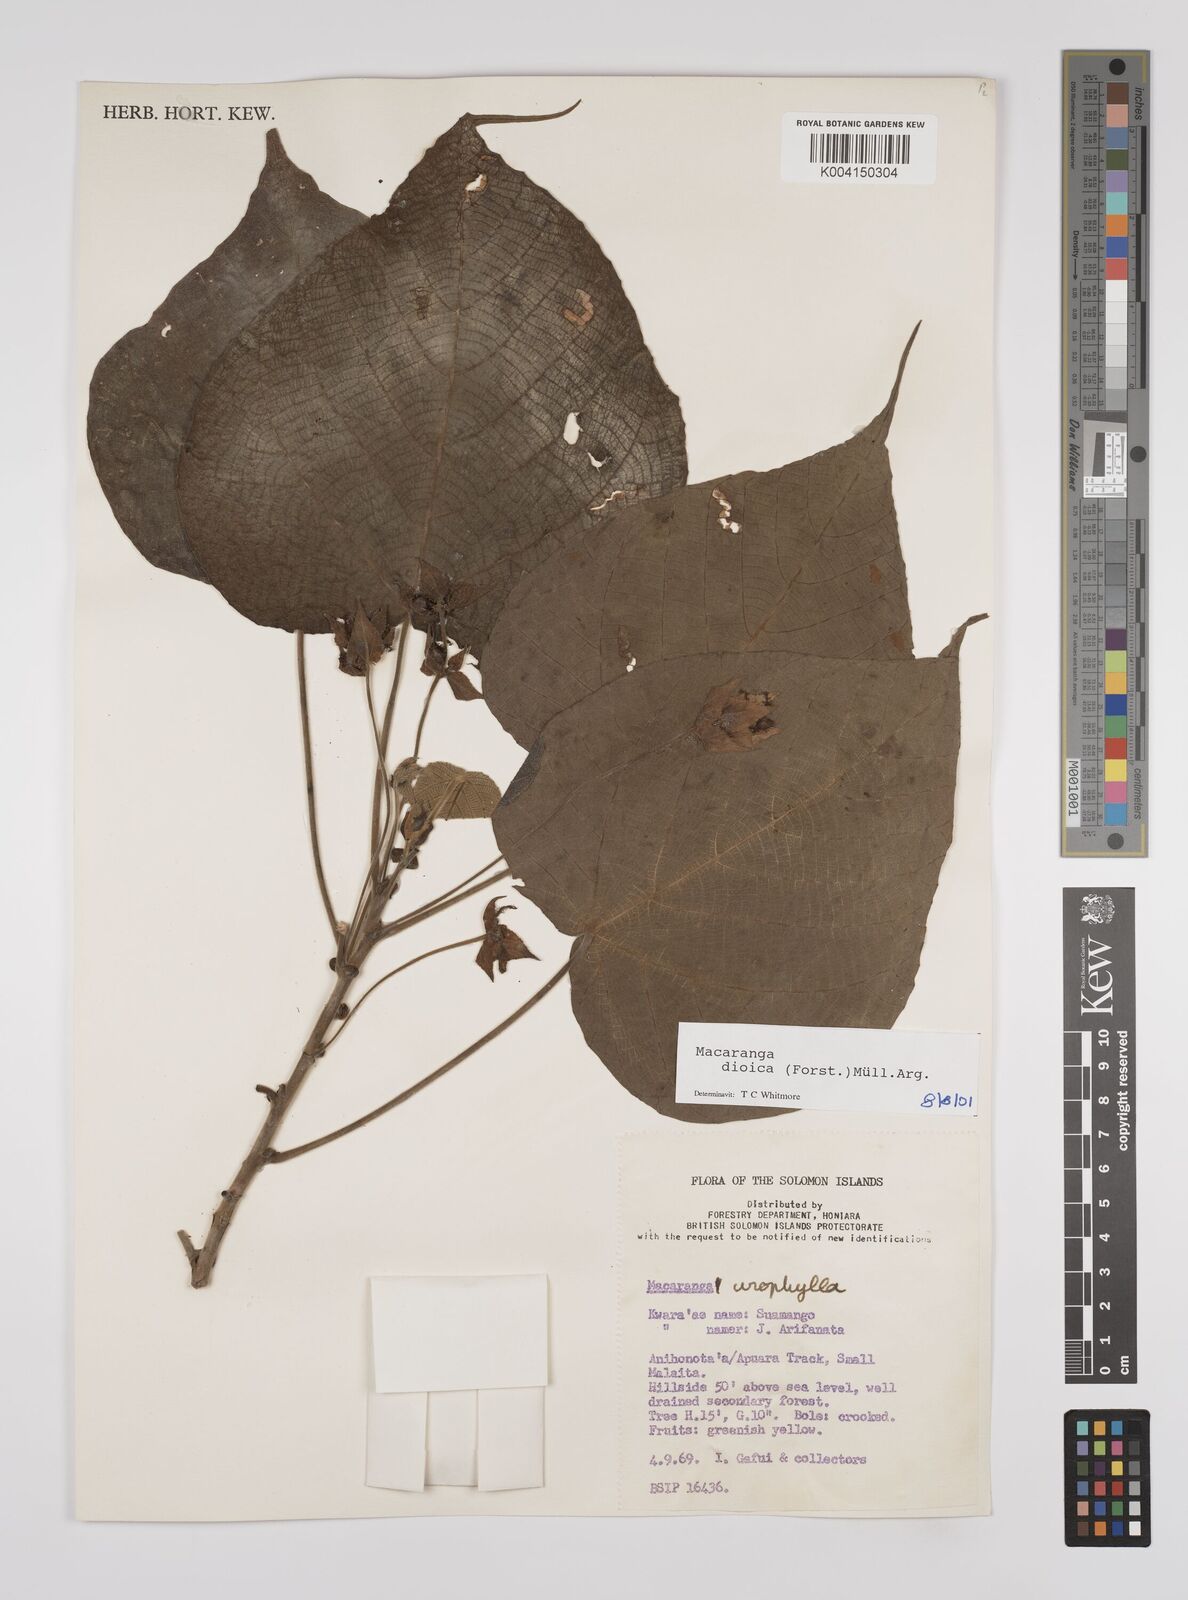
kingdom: Plantae
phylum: Tracheophyta
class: Magnoliopsida
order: Malpighiales
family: Euphorbiaceae
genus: Macaranga
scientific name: Macaranga dioica
